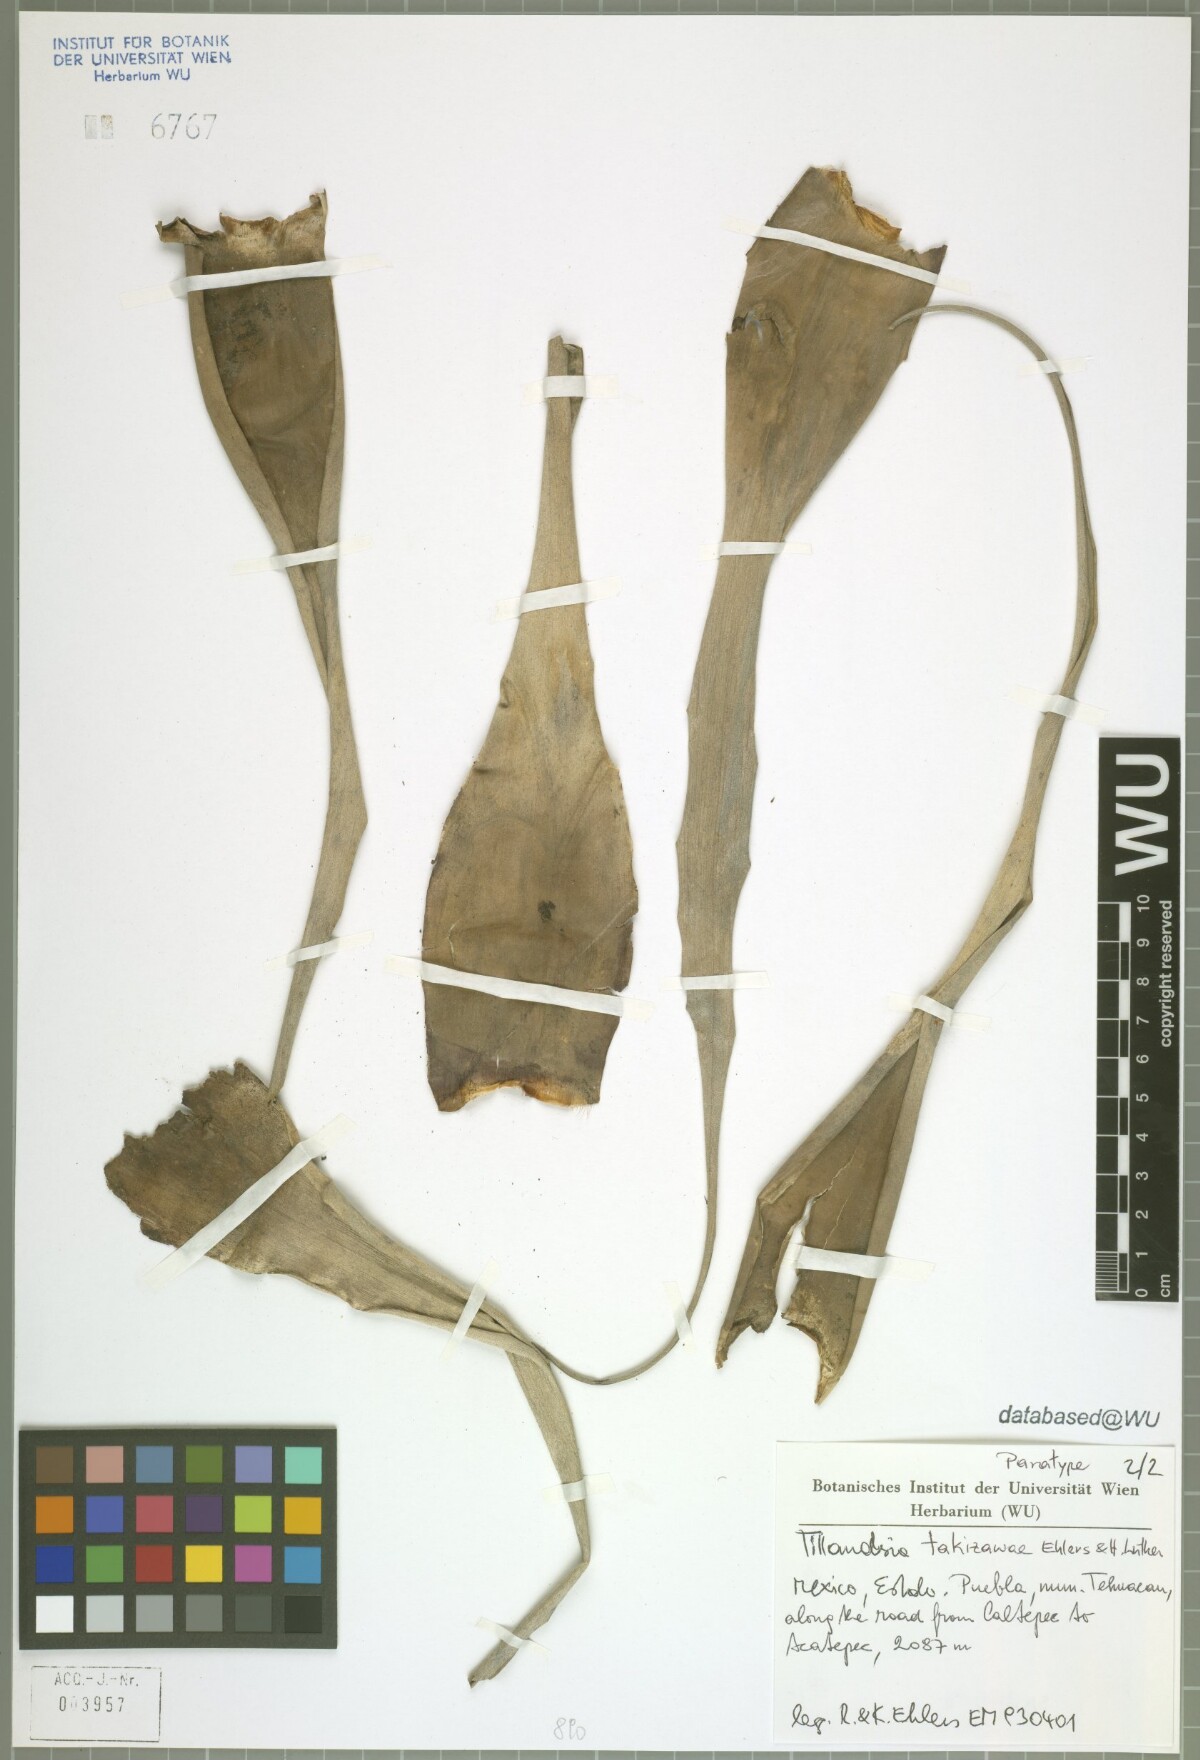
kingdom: Plantae
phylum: Tracheophyta
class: Liliopsida
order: Poales
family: Bromeliaceae
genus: Tillandsia
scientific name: Tillandsia takizawae
